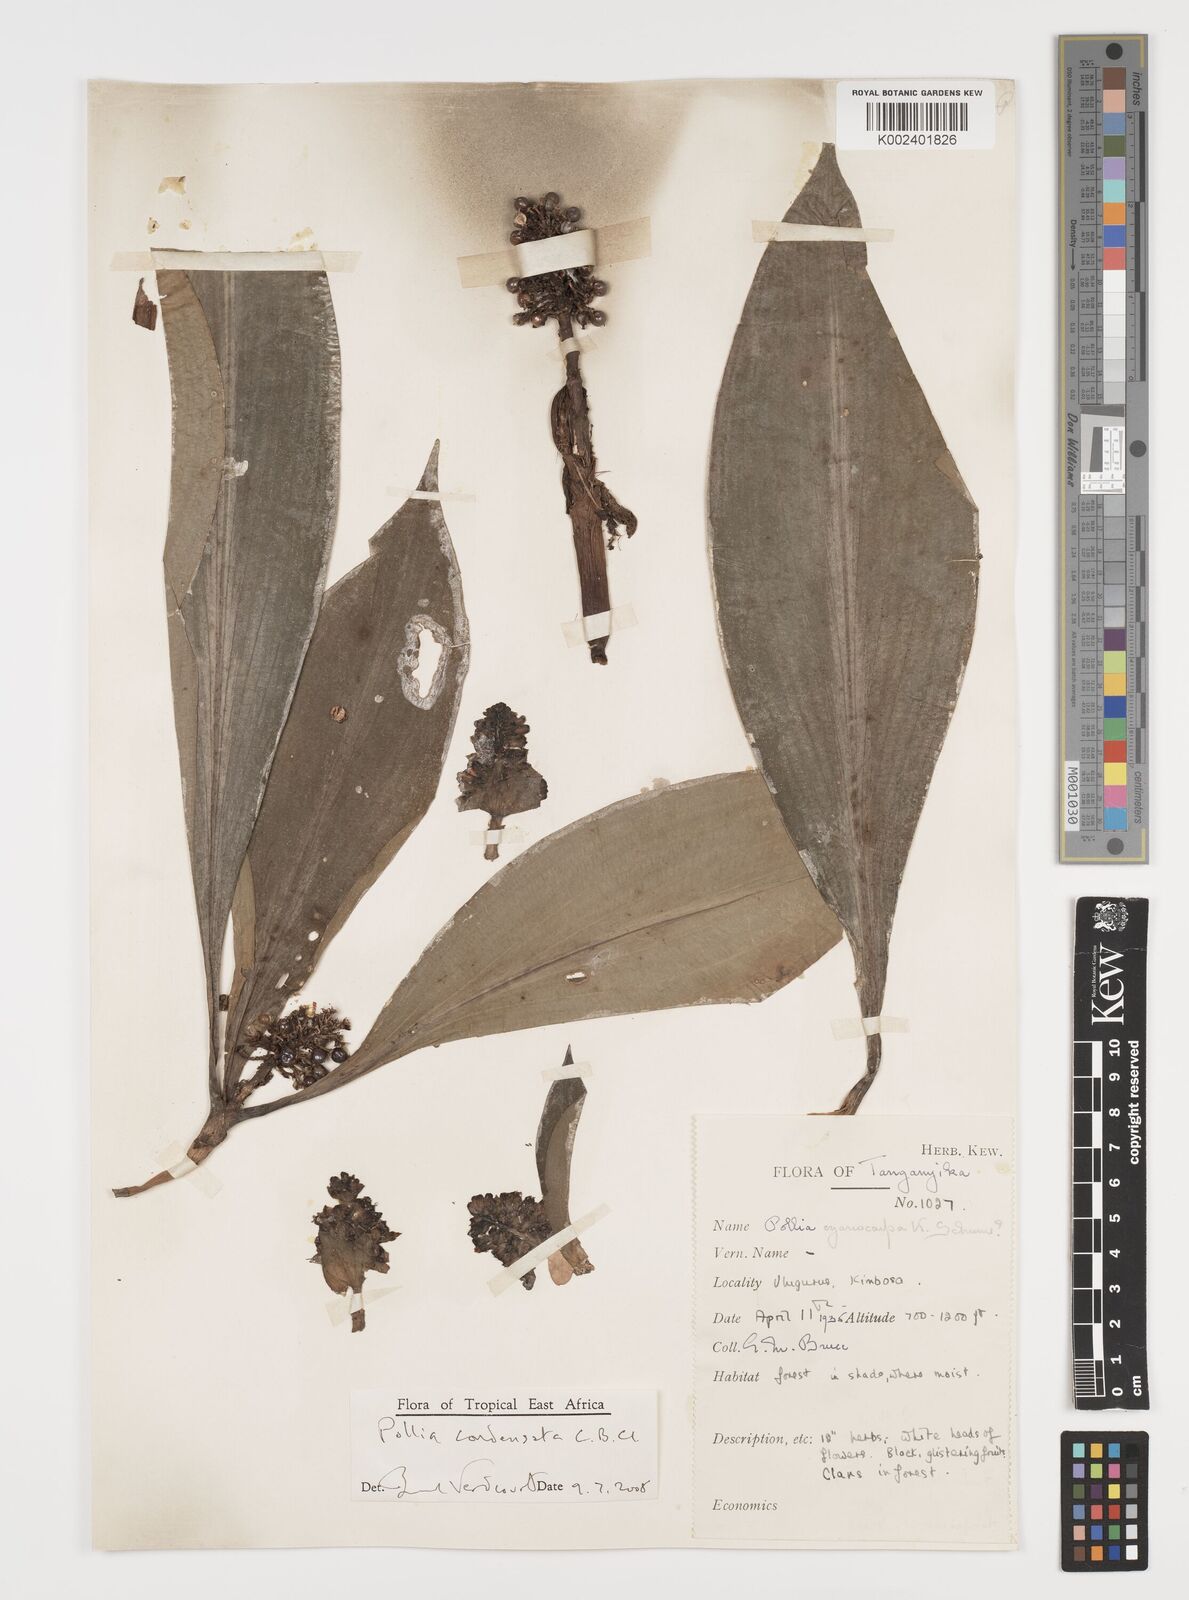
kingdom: Plantae
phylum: Tracheophyta
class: Liliopsida
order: Commelinales
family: Commelinaceae
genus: Pollia
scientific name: Pollia condensata
